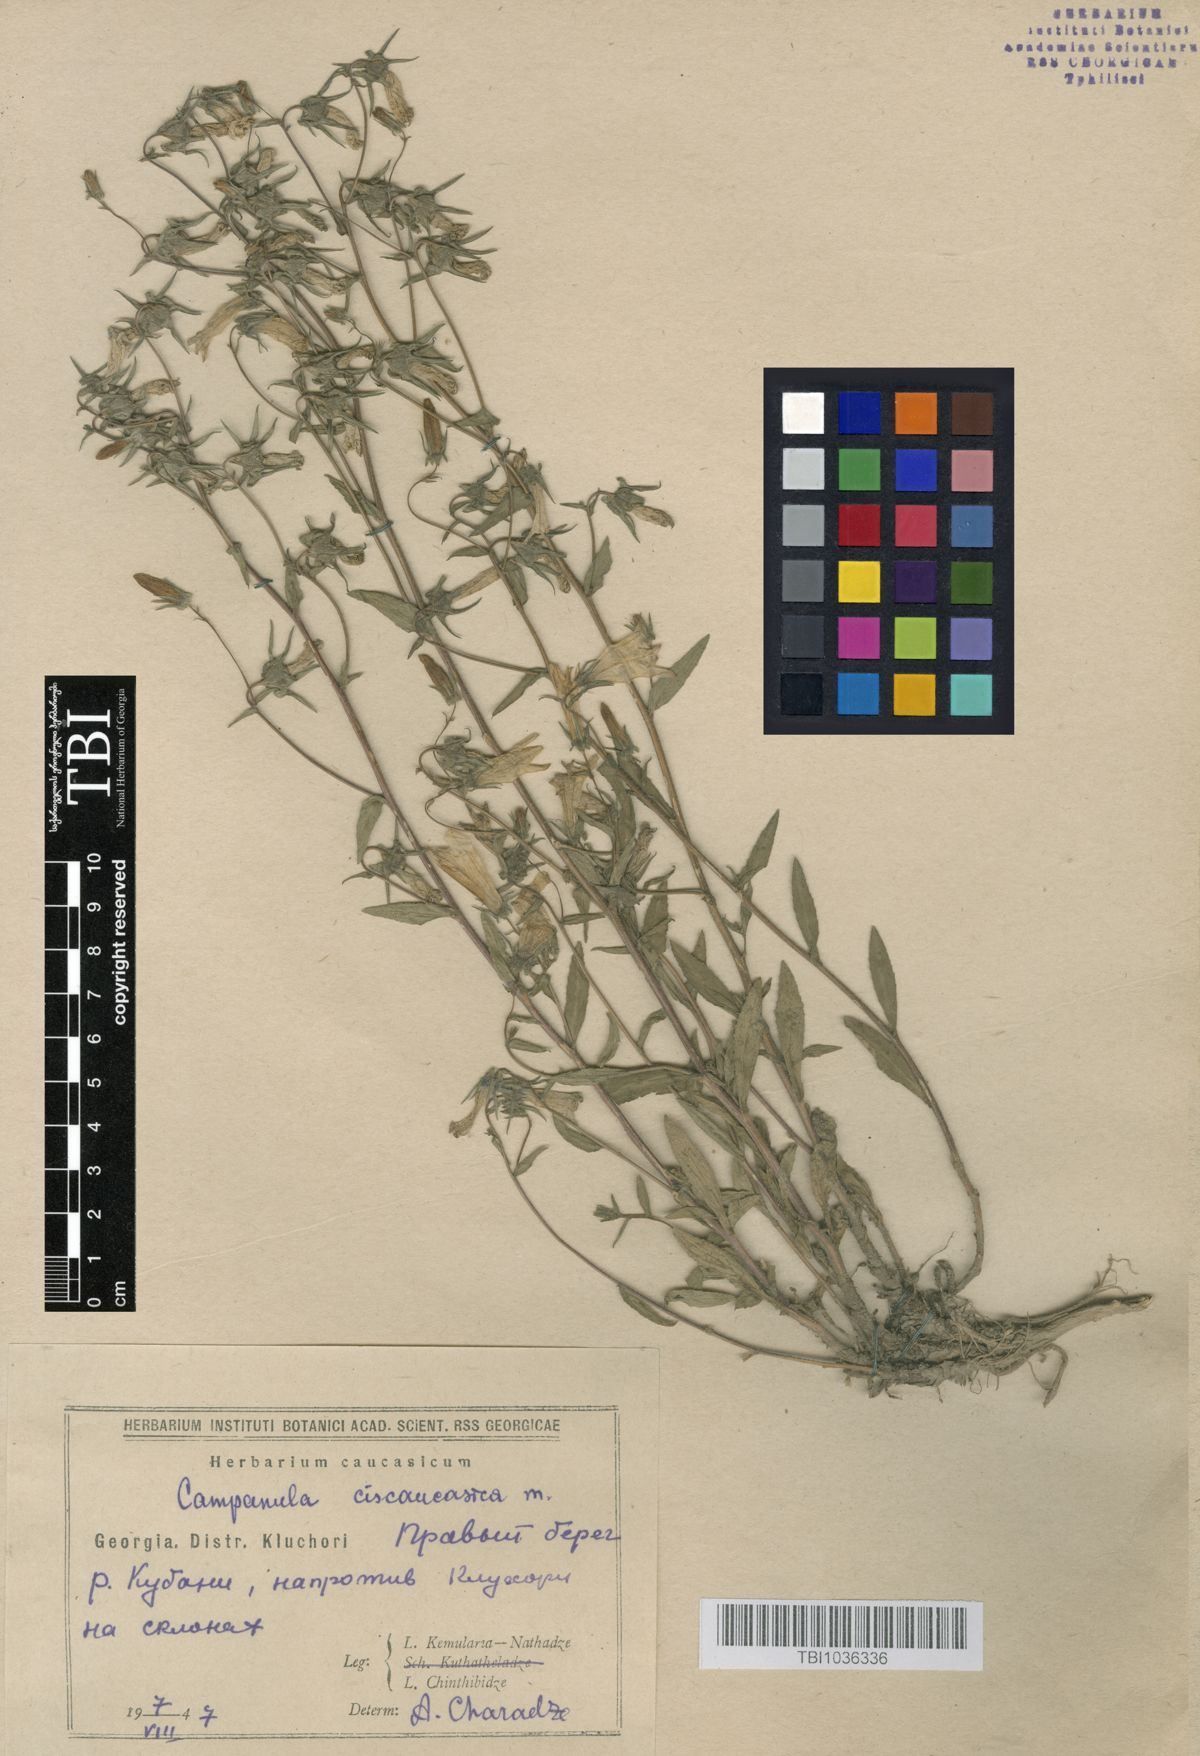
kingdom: Plantae
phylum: Tracheophyta
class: Magnoliopsida
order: Asterales
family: Campanulaceae
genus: Campanula
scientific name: Campanula sibirica
